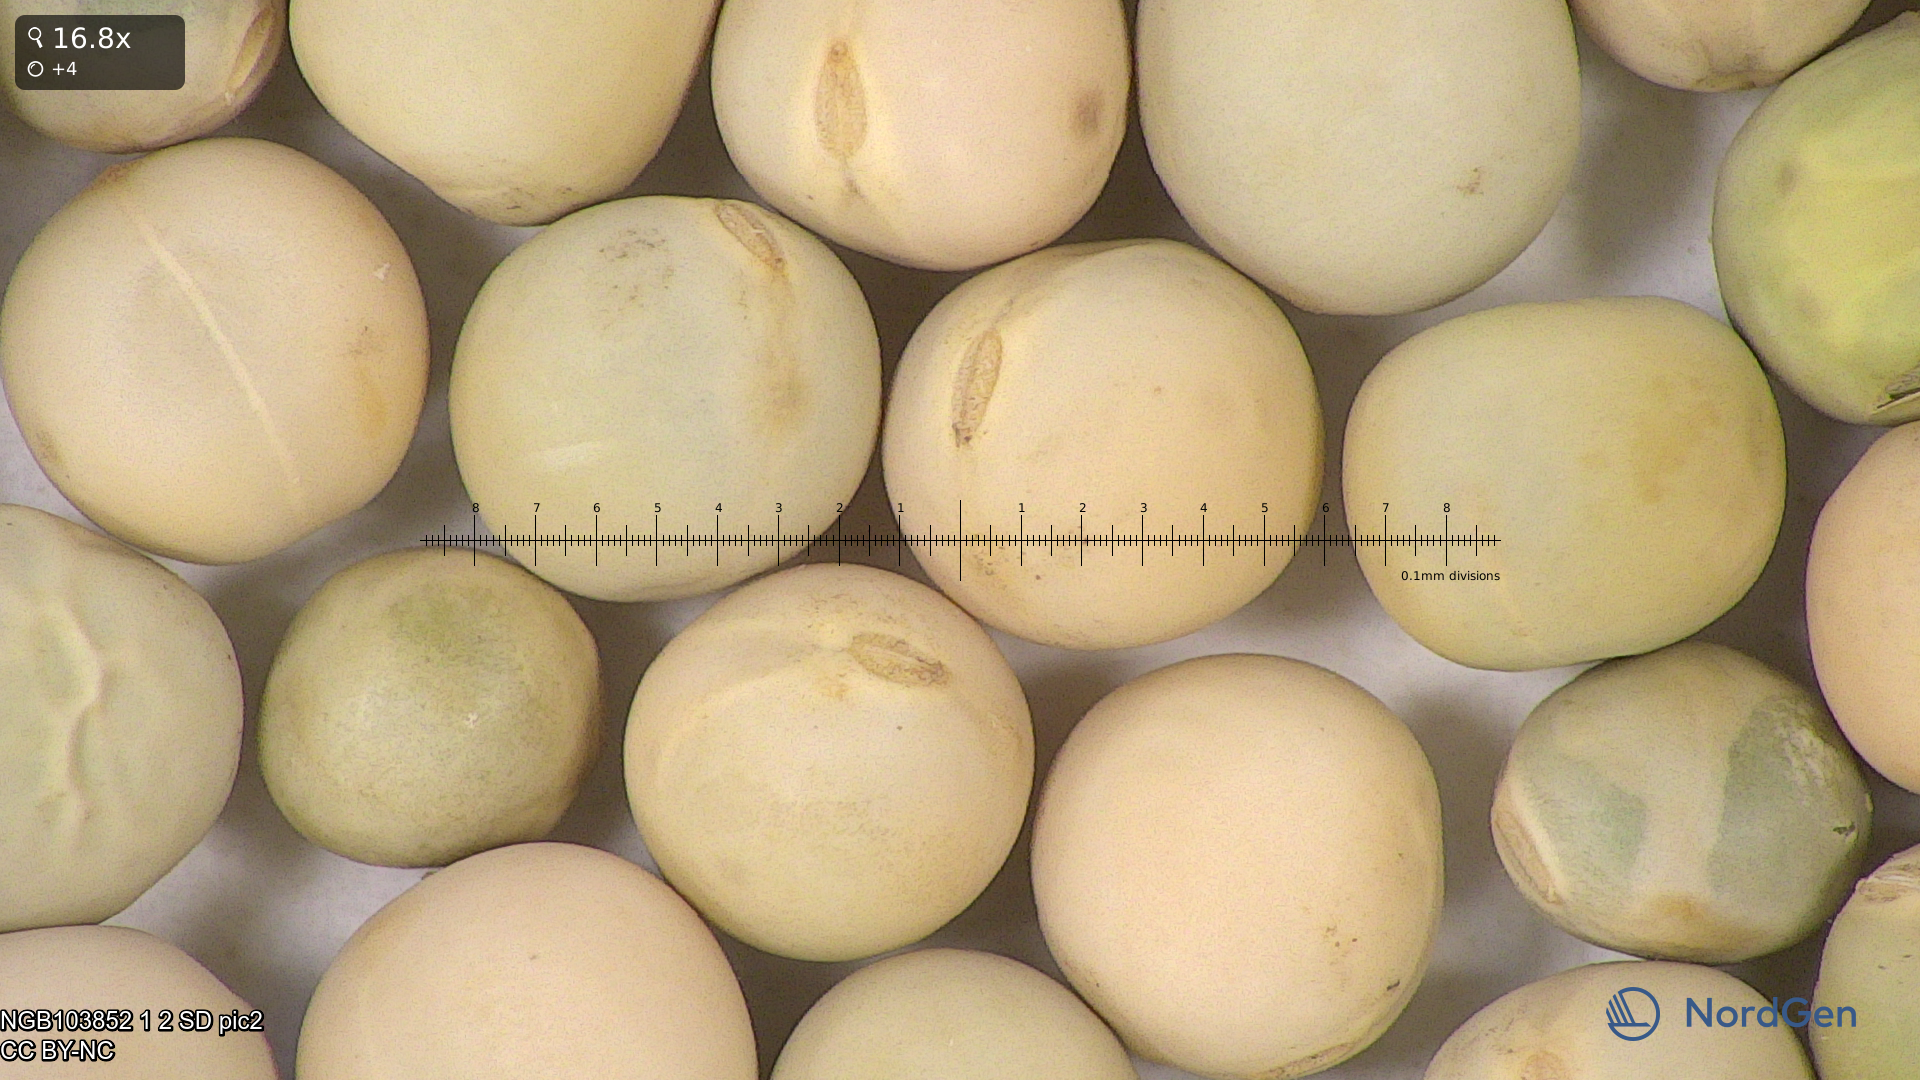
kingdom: Plantae
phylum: Tracheophyta
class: Magnoliopsida
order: Fabales
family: Fabaceae
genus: Lathyrus
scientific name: Lathyrus oleraceus
